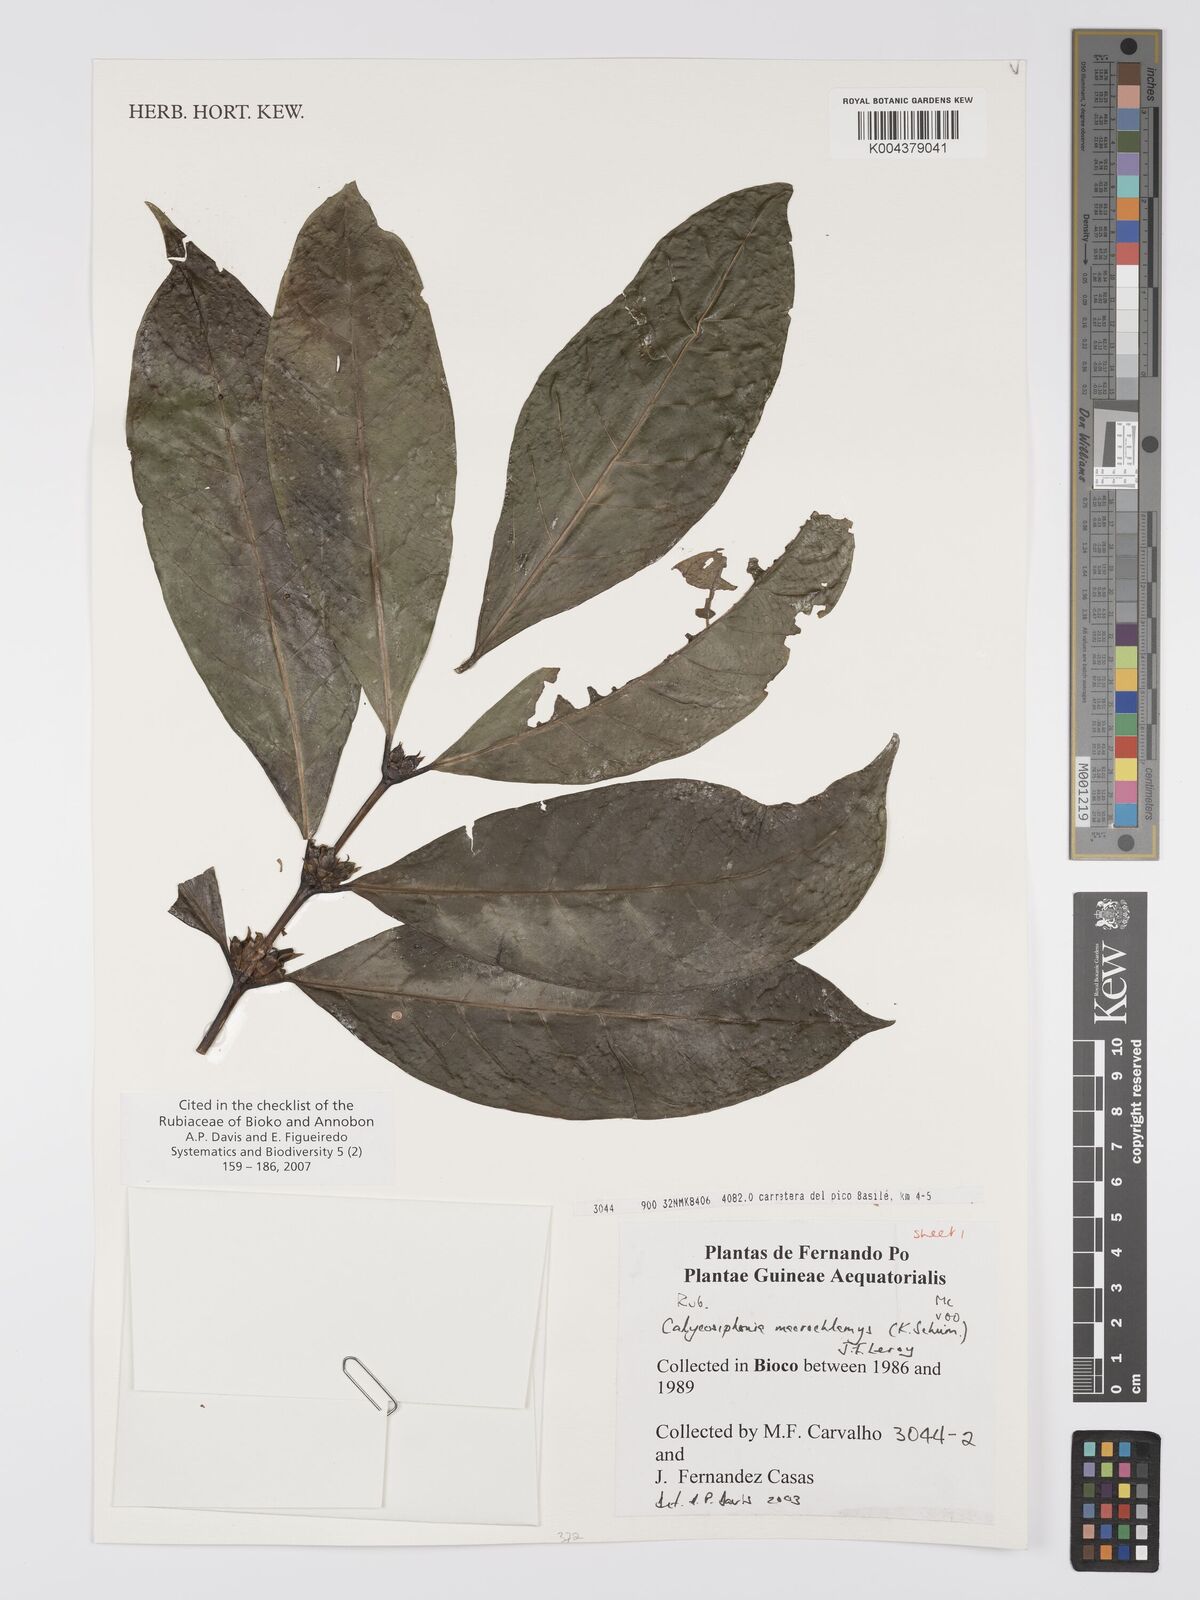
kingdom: Plantae
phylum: Tracheophyta
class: Magnoliopsida
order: Gentianales
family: Rubiaceae
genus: Calycosiphonia
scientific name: Calycosiphonia macrochlamys
